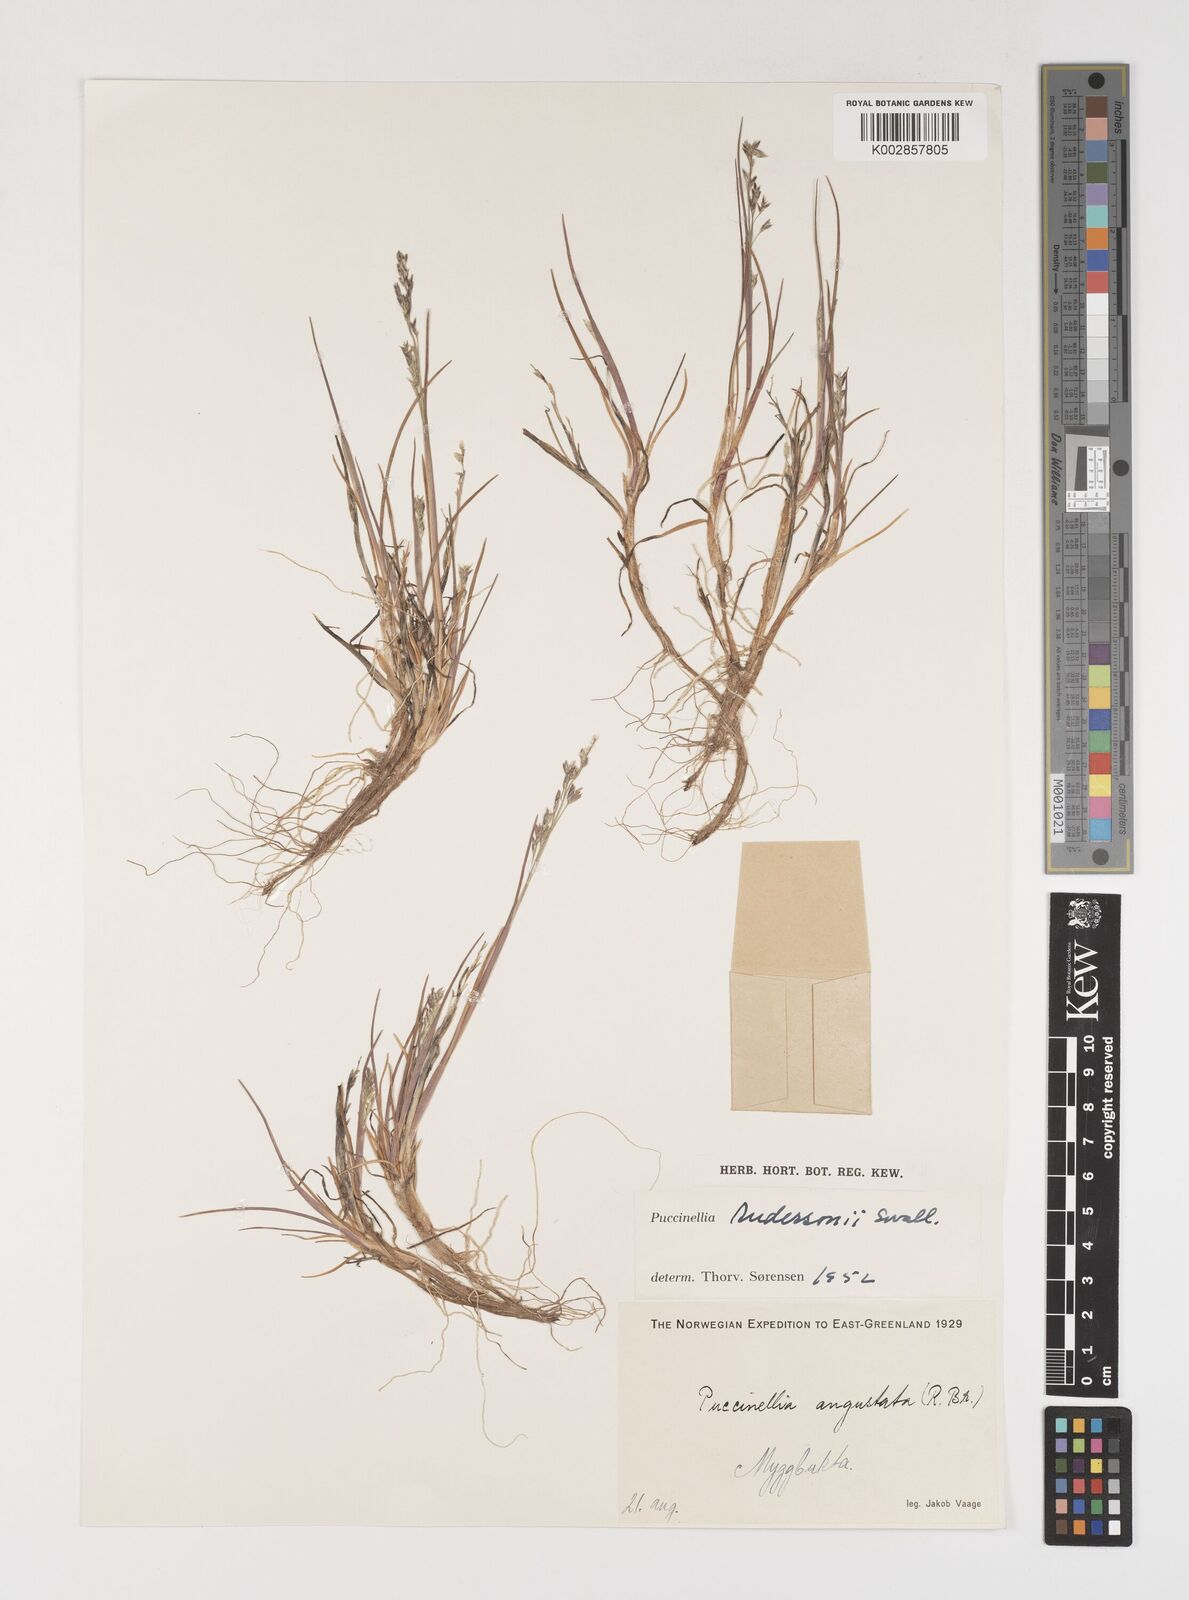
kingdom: Plantae
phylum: Tracheophyta
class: Liliopsida
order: Poales
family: Poaceae
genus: Puccinellia
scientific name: Puccinellia andersonii
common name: Anderson's alkali grass
